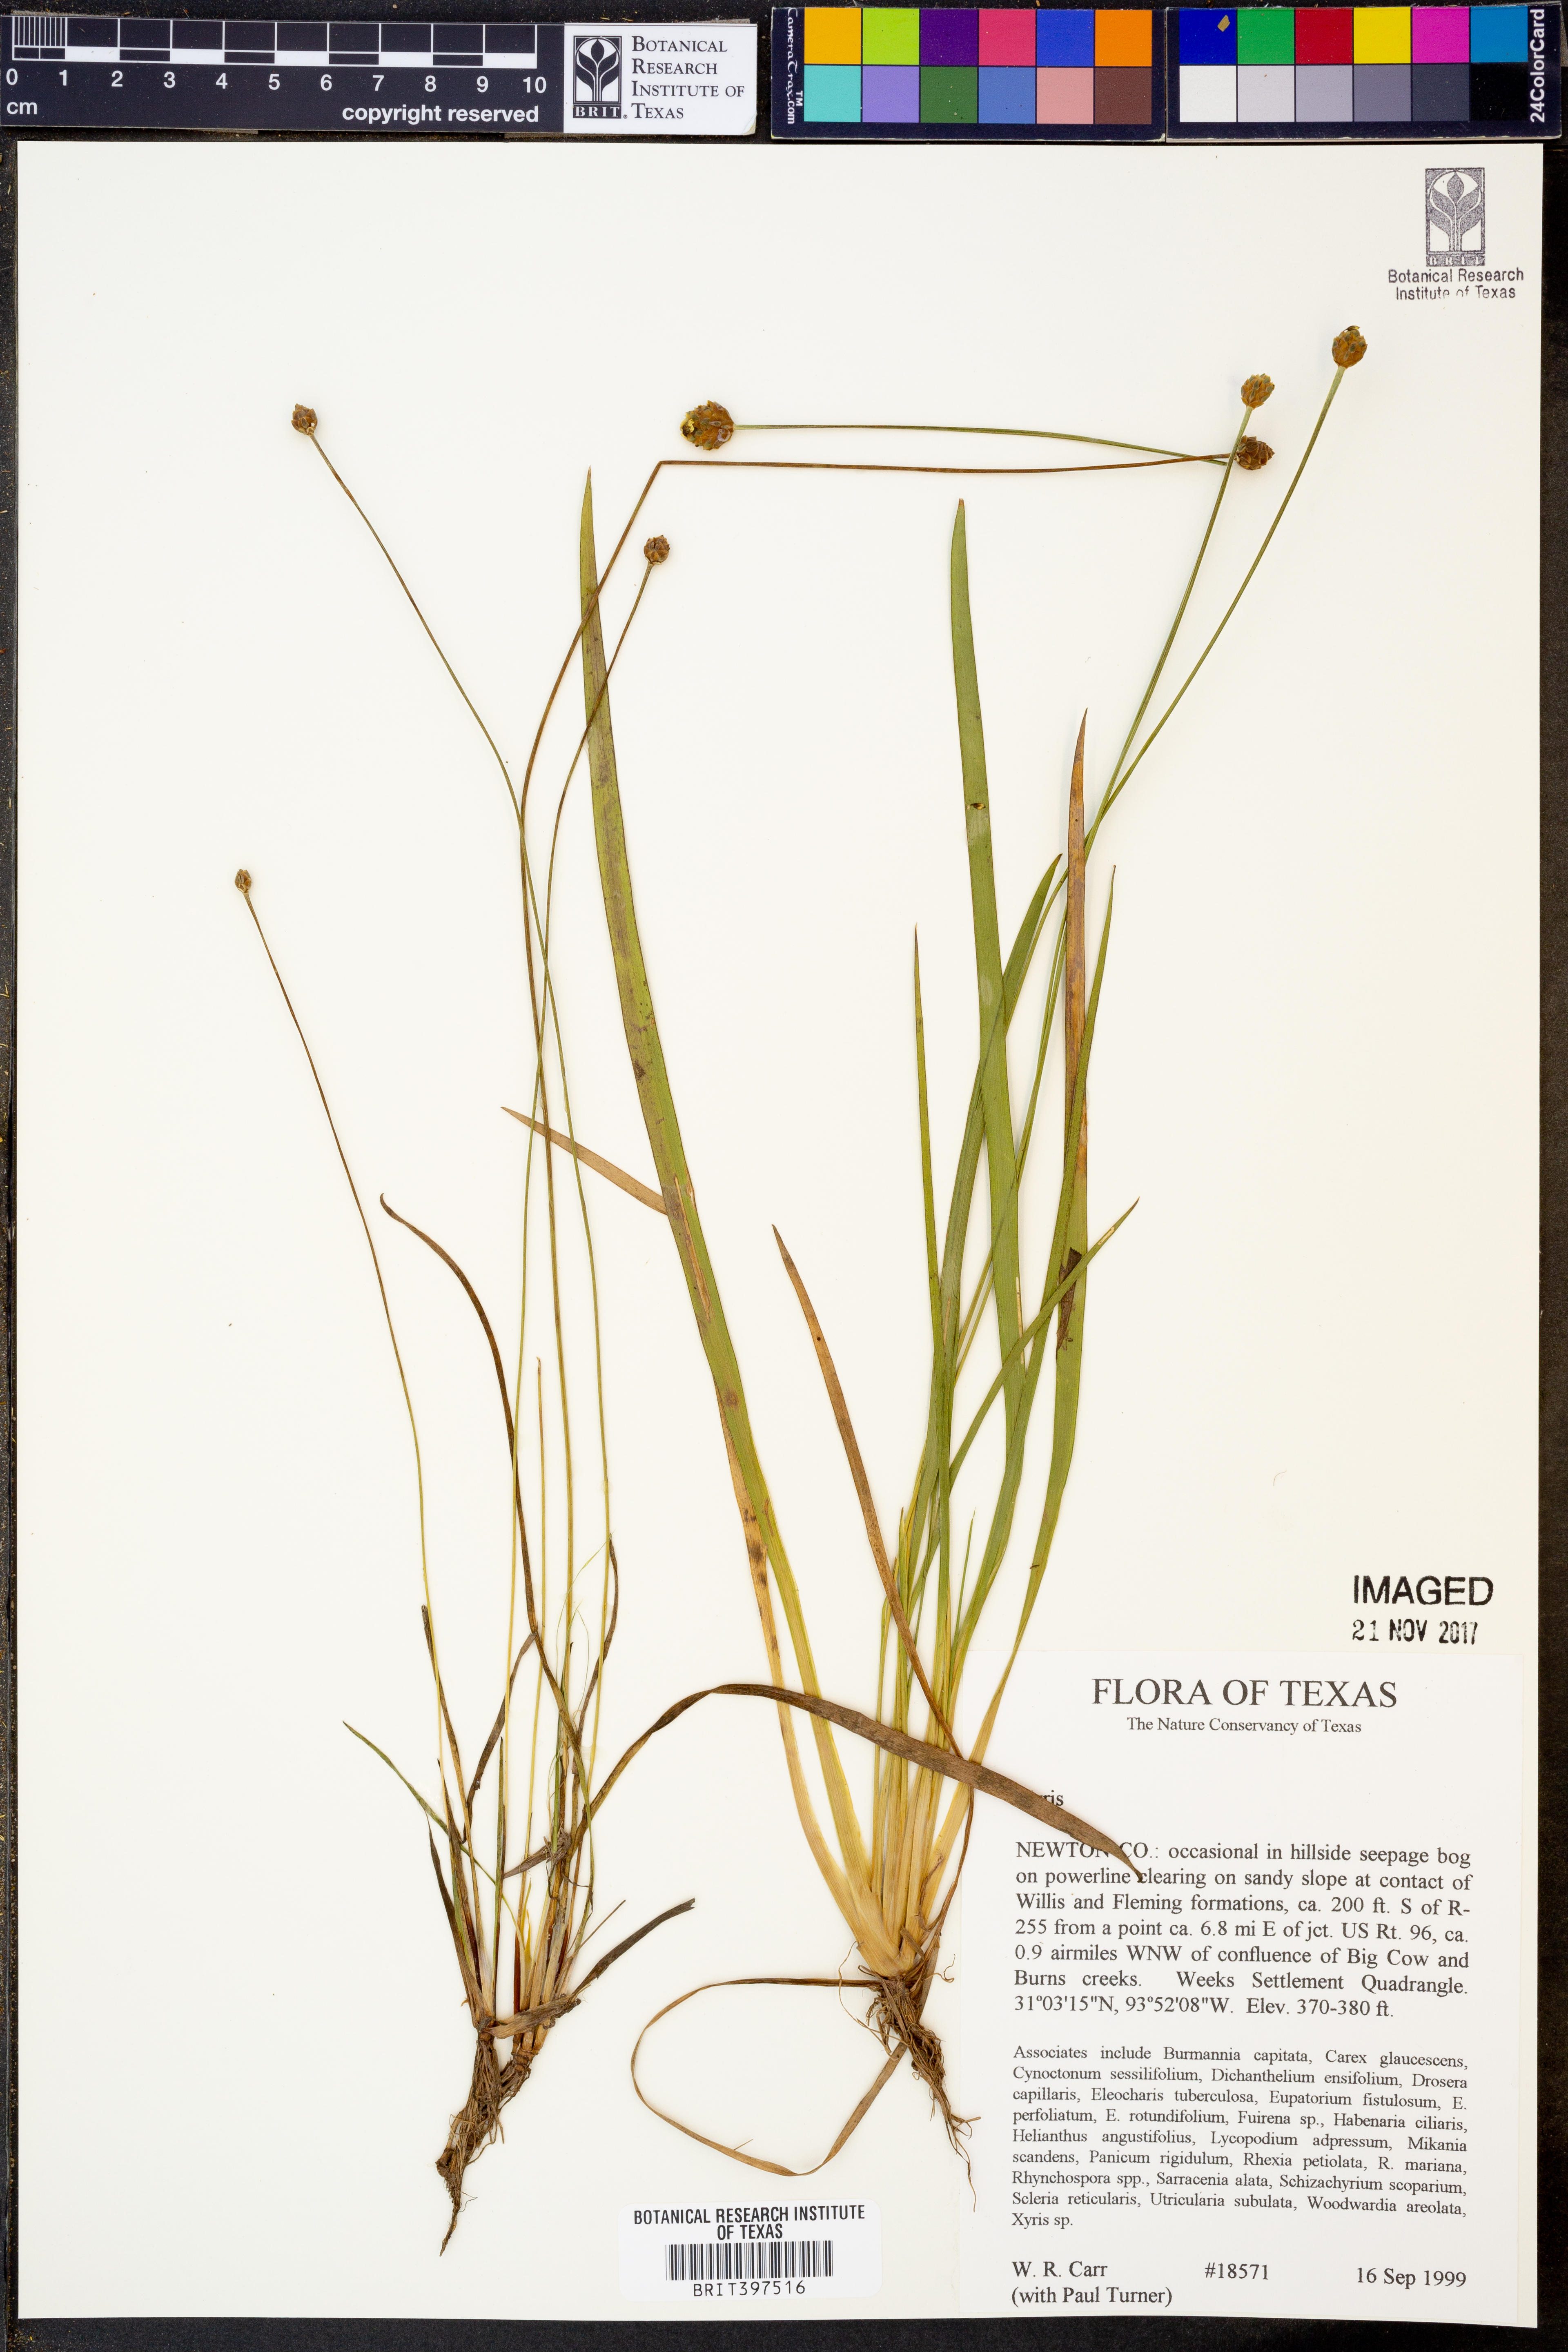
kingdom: Plantae
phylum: Tracheophyta
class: Liliopsida
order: Poales
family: Xyridaceae
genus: Xyris
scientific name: Xyris
